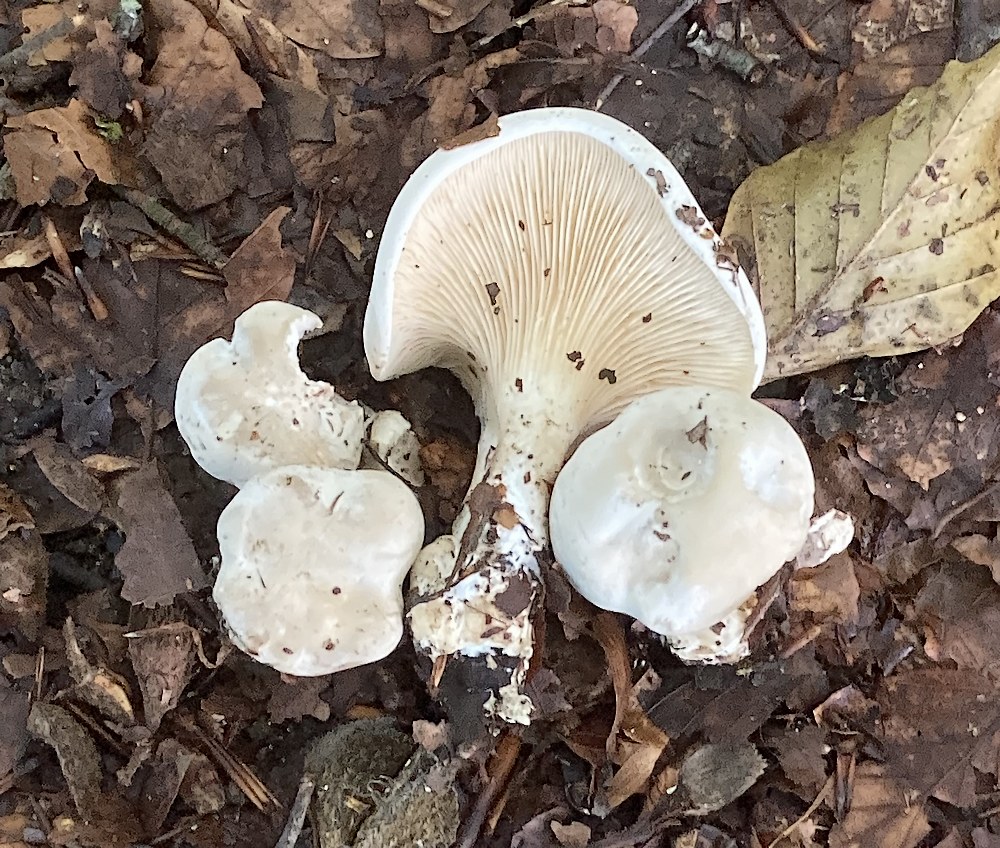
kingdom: Fungi
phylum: Basidiomycota
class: Agaricomycetes
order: Agaricales
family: Entolomataceae
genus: Clitopilus
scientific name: Clitopilus prunulus
